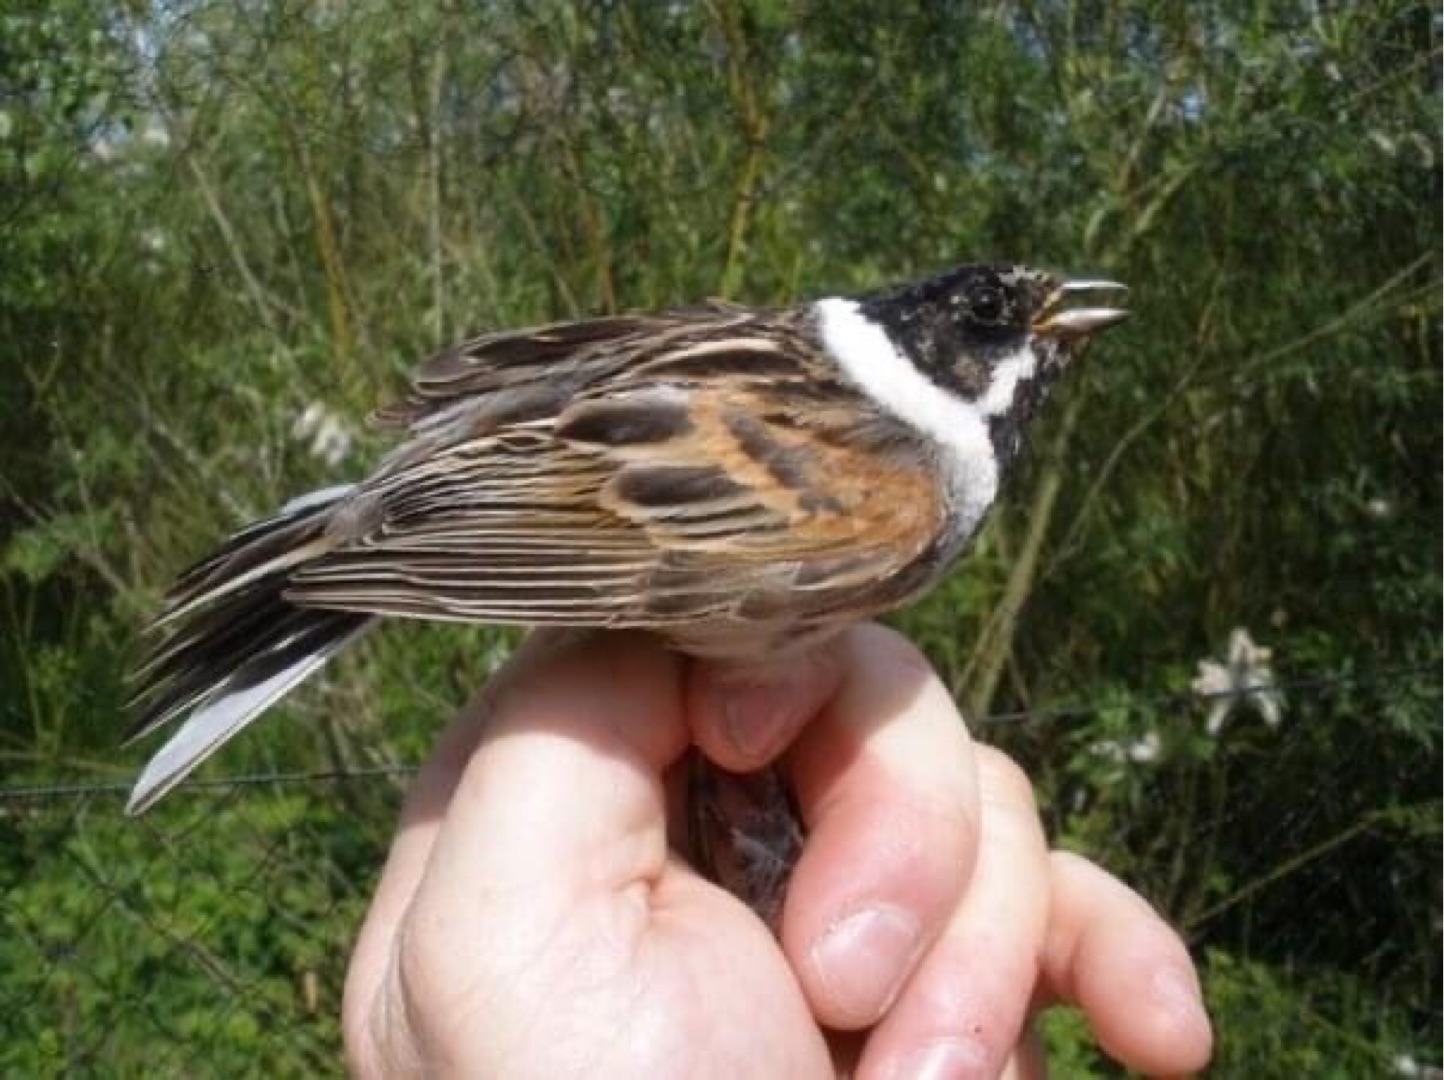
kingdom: Animalia
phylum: Chordata
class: Aves
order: Passeriformes
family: Emberizidae
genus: Emberiza
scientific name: Emberiza schoeniclus
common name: Rørspurv
